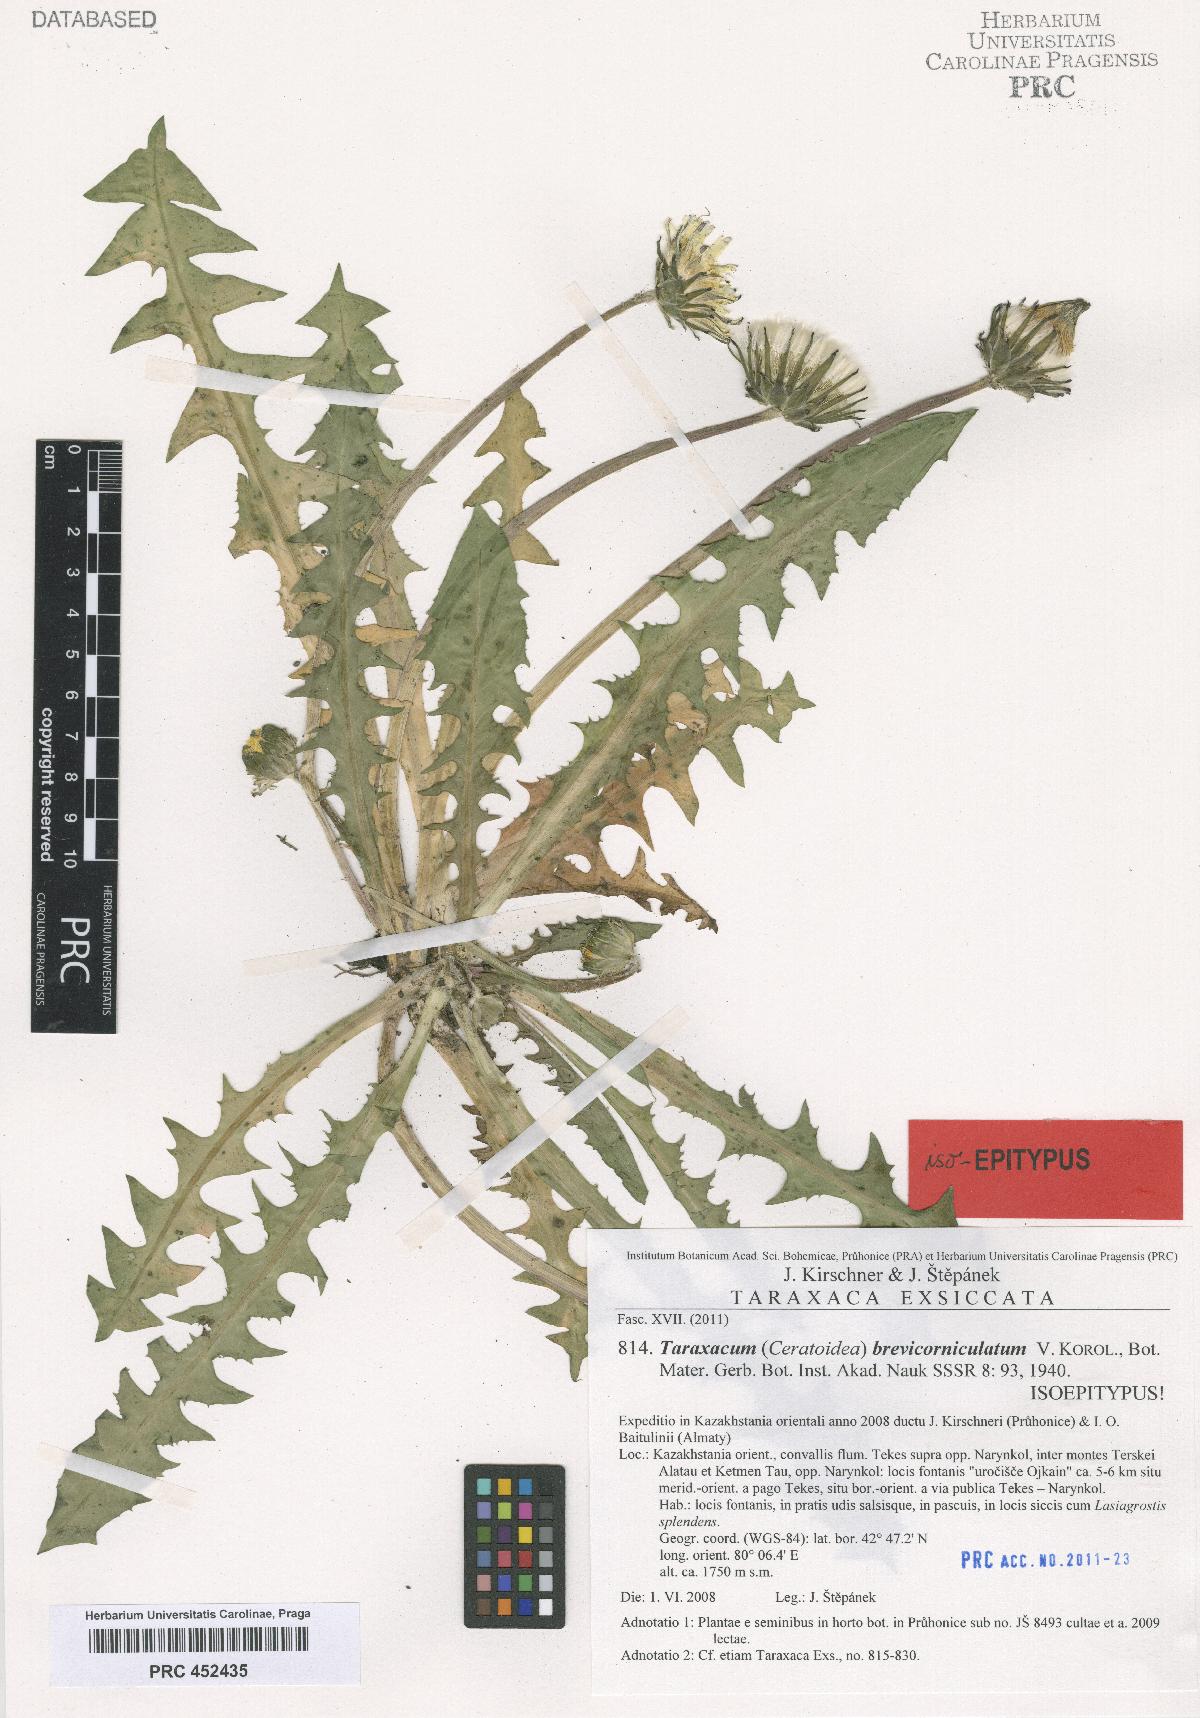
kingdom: Plantae
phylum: Tracheophyta
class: Magnoliopsida
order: Asterales
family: Asteraceae
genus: Taraxacum
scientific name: Taraxacum kok-saghyz
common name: Russian dandelion
